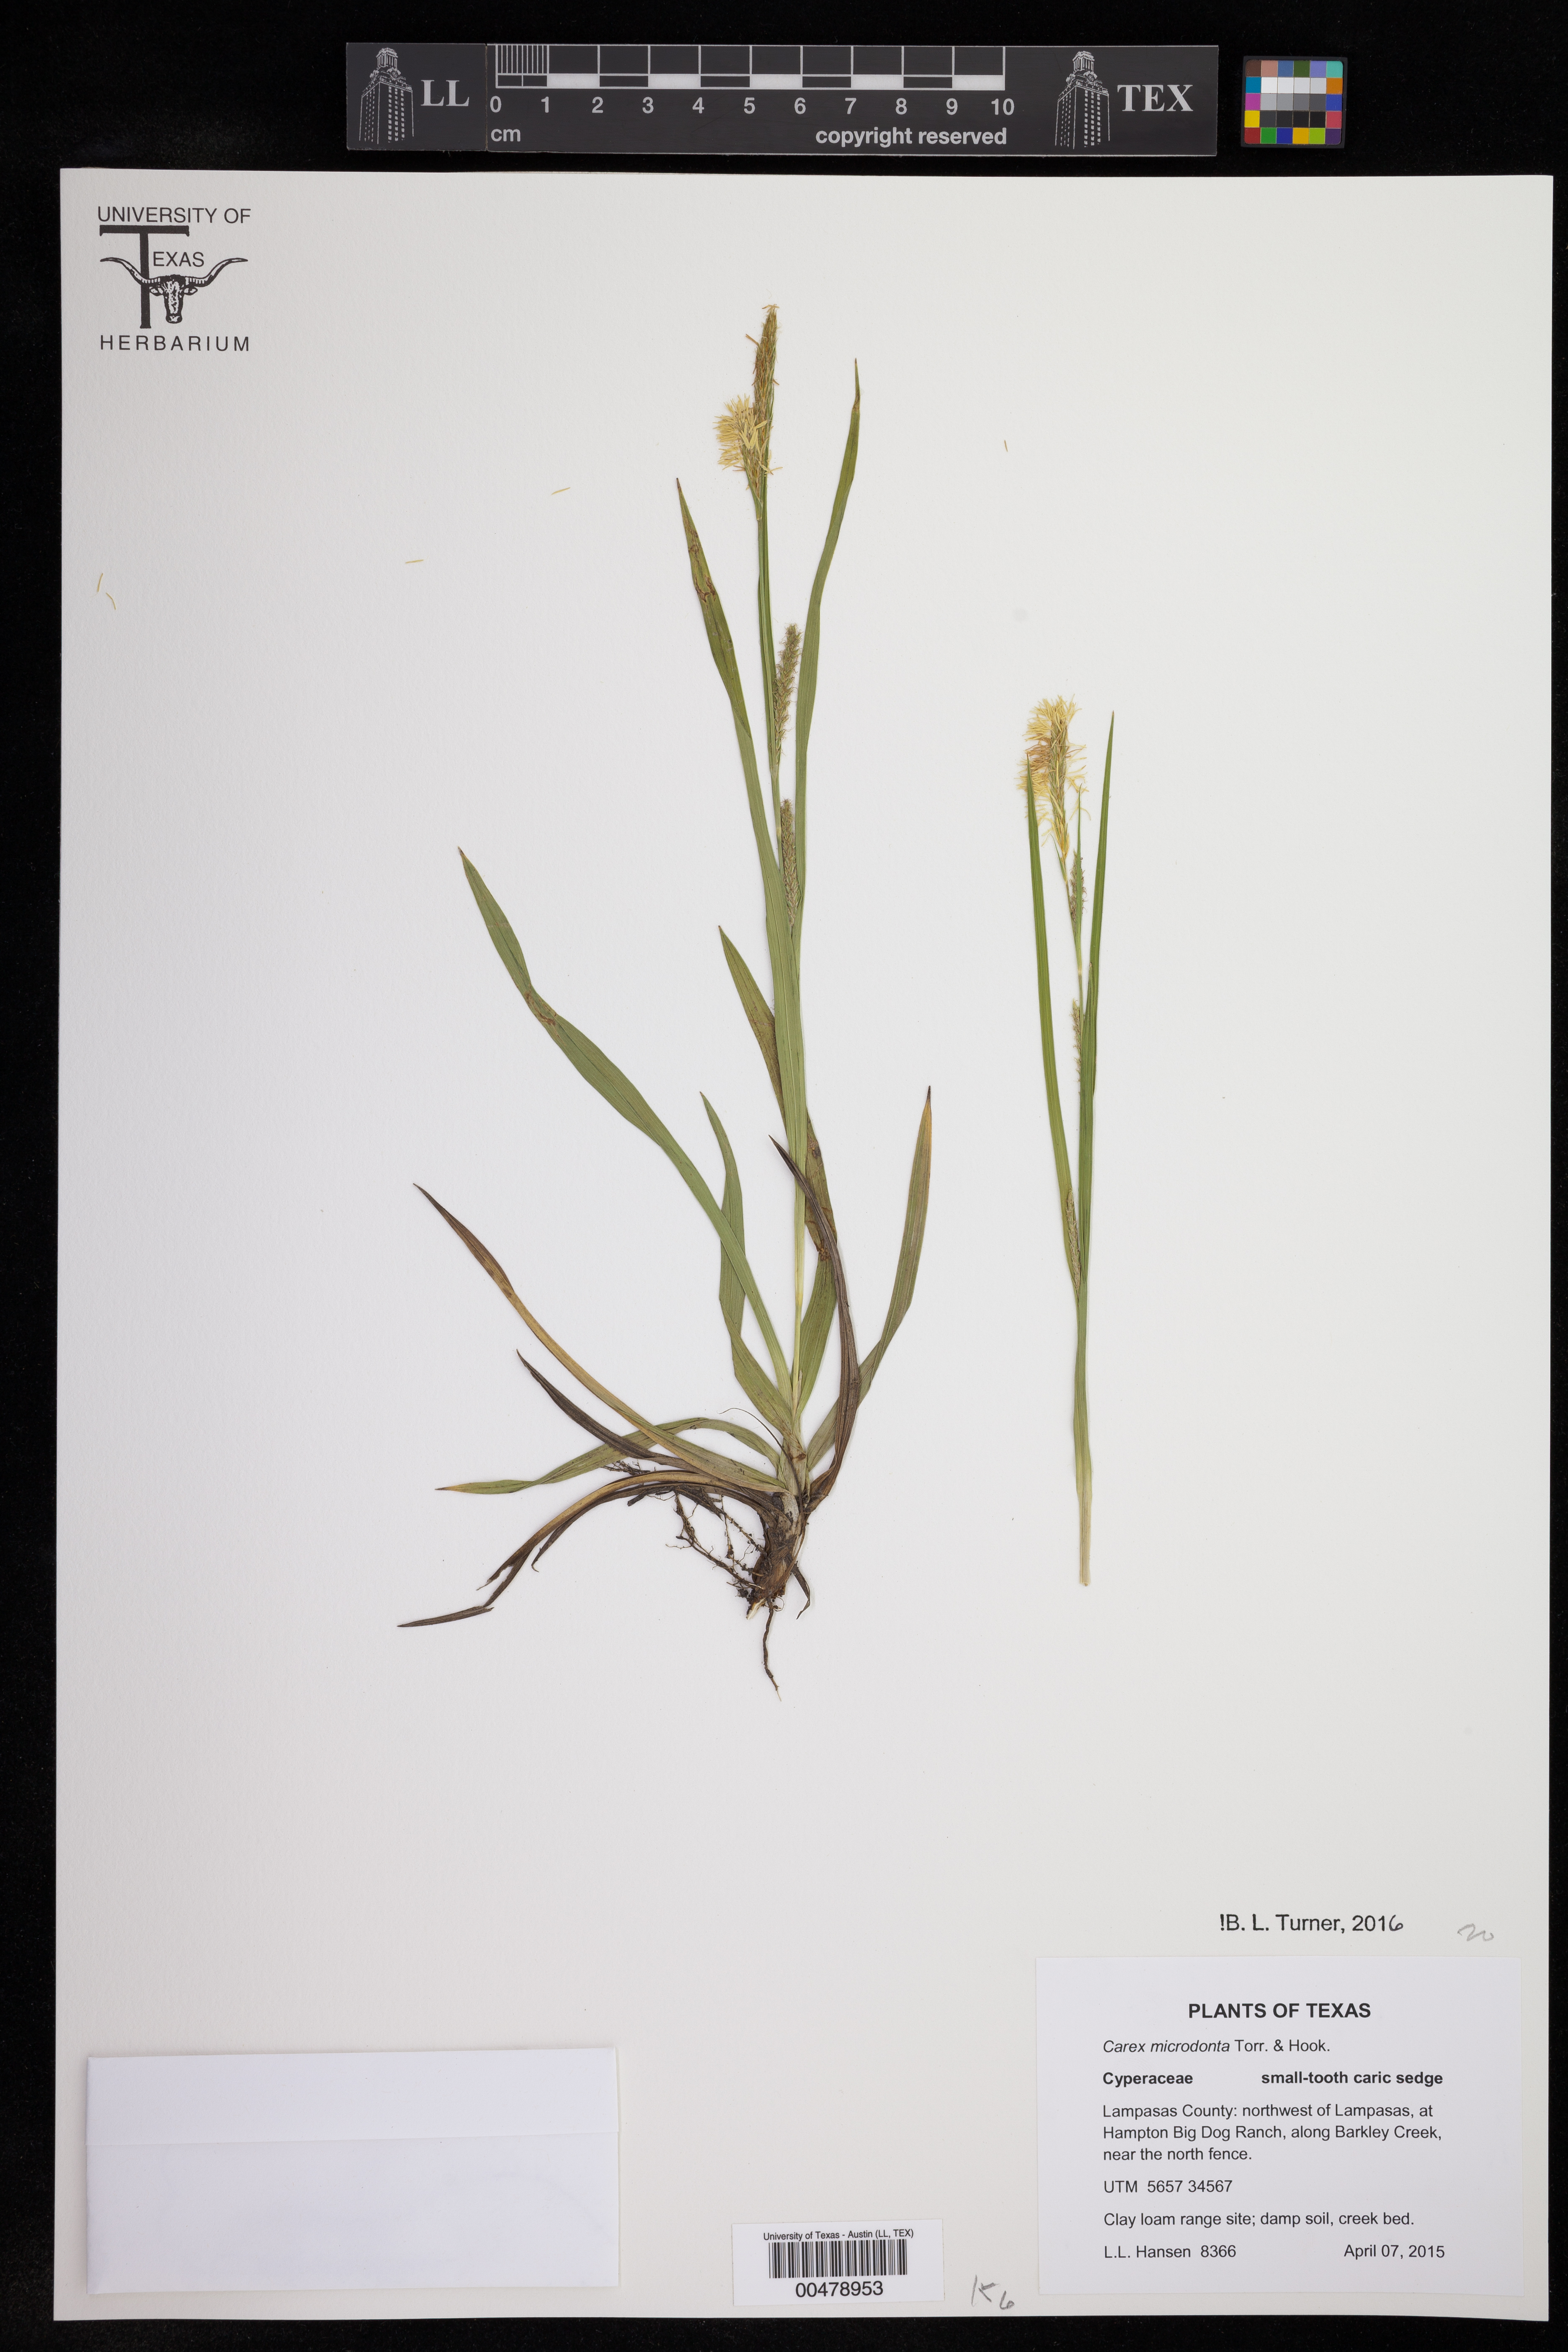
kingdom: Plantae
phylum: Tracheophyta
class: Liliopsida
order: Poales
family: Cyperaceae
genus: Carex
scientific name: Carex microdonta
